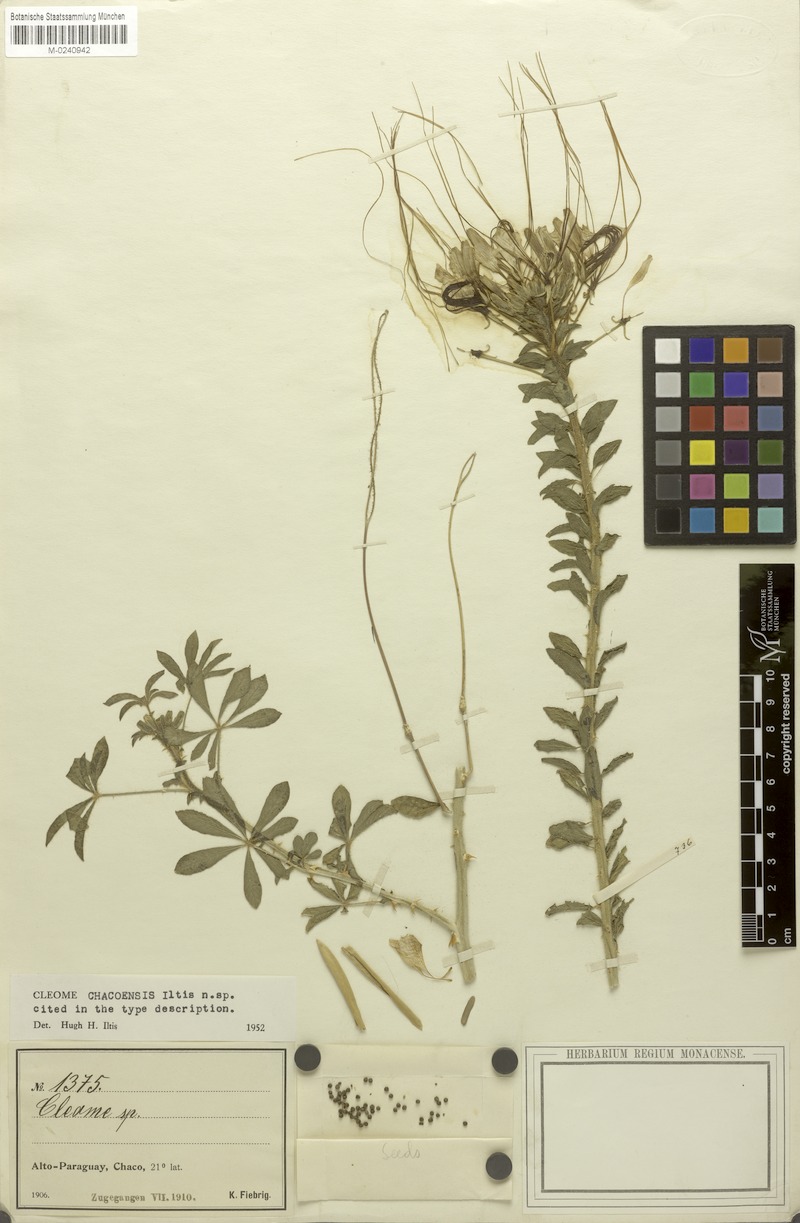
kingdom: Plantae
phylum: Tracheophyta
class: Magnoliopsida
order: Brassicales
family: Cleomaceae
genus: Cleome
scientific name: Cleome
